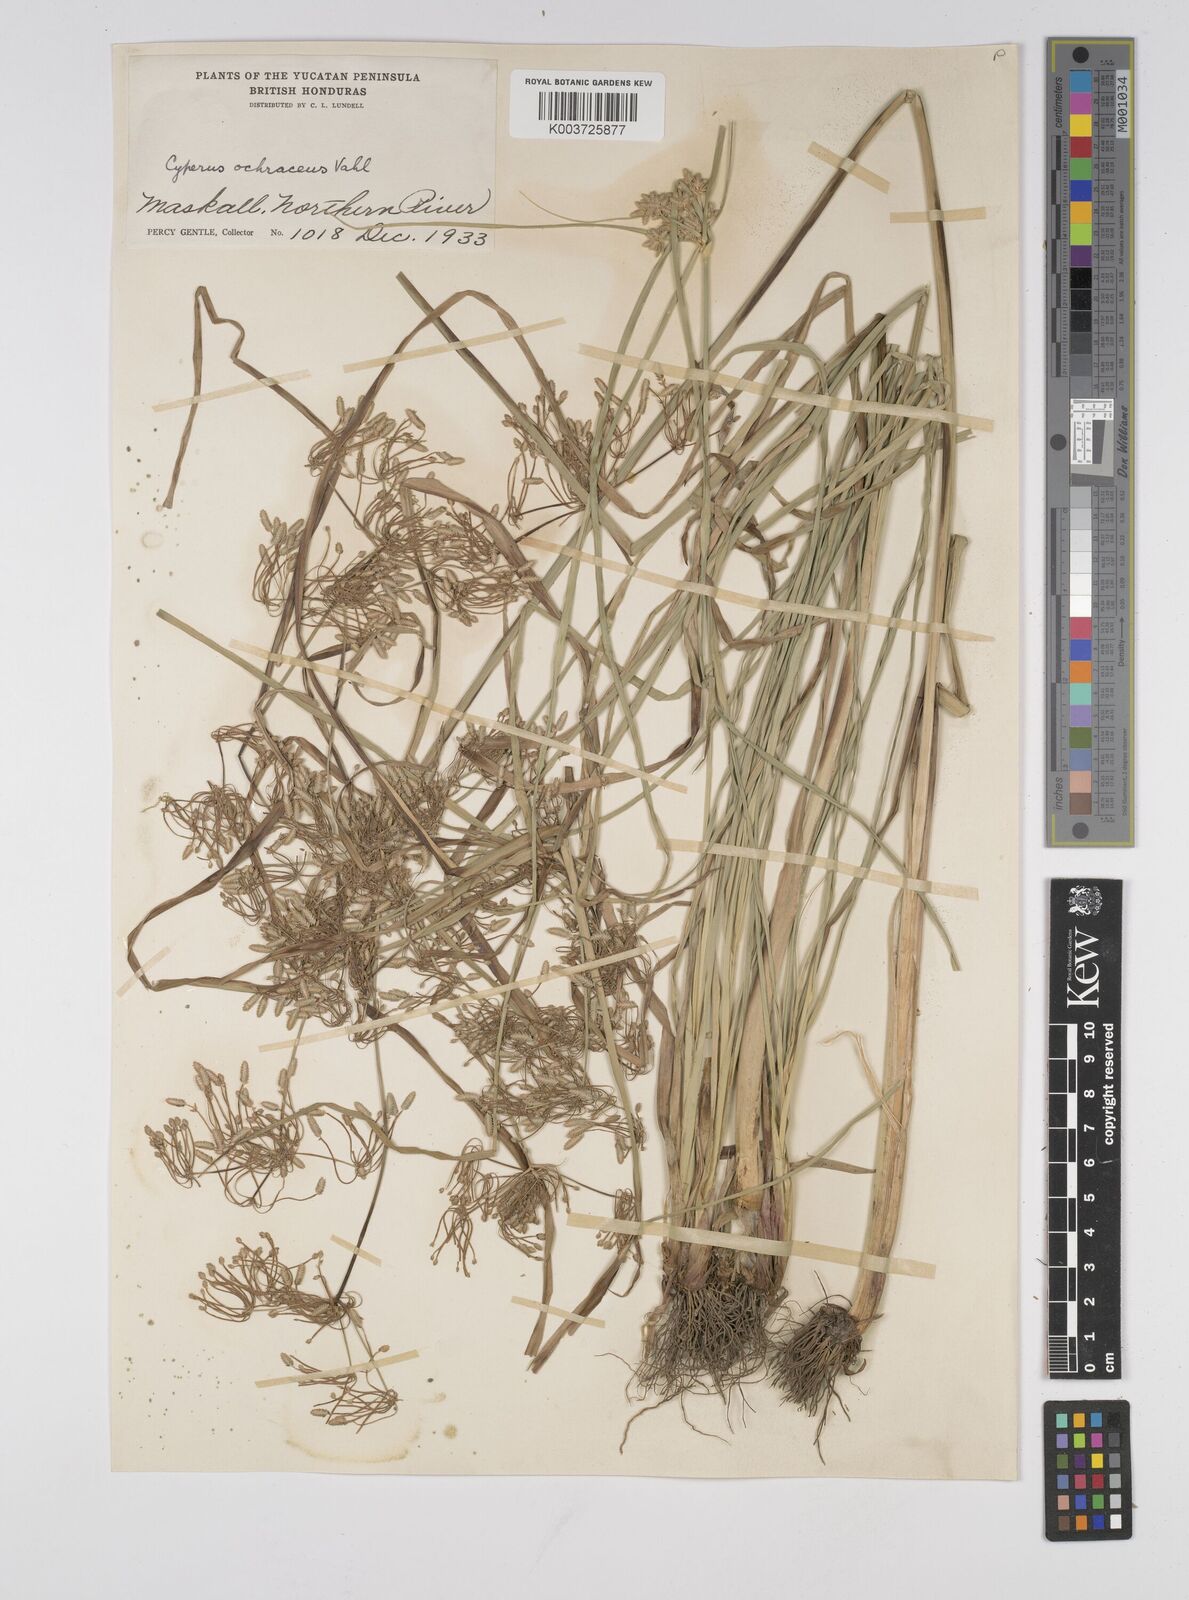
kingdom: Plantae
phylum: Tracheophyta
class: Liliopsida
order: Poales
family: Cyperaceae
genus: Cyperus
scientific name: Cyperus ochraceus
